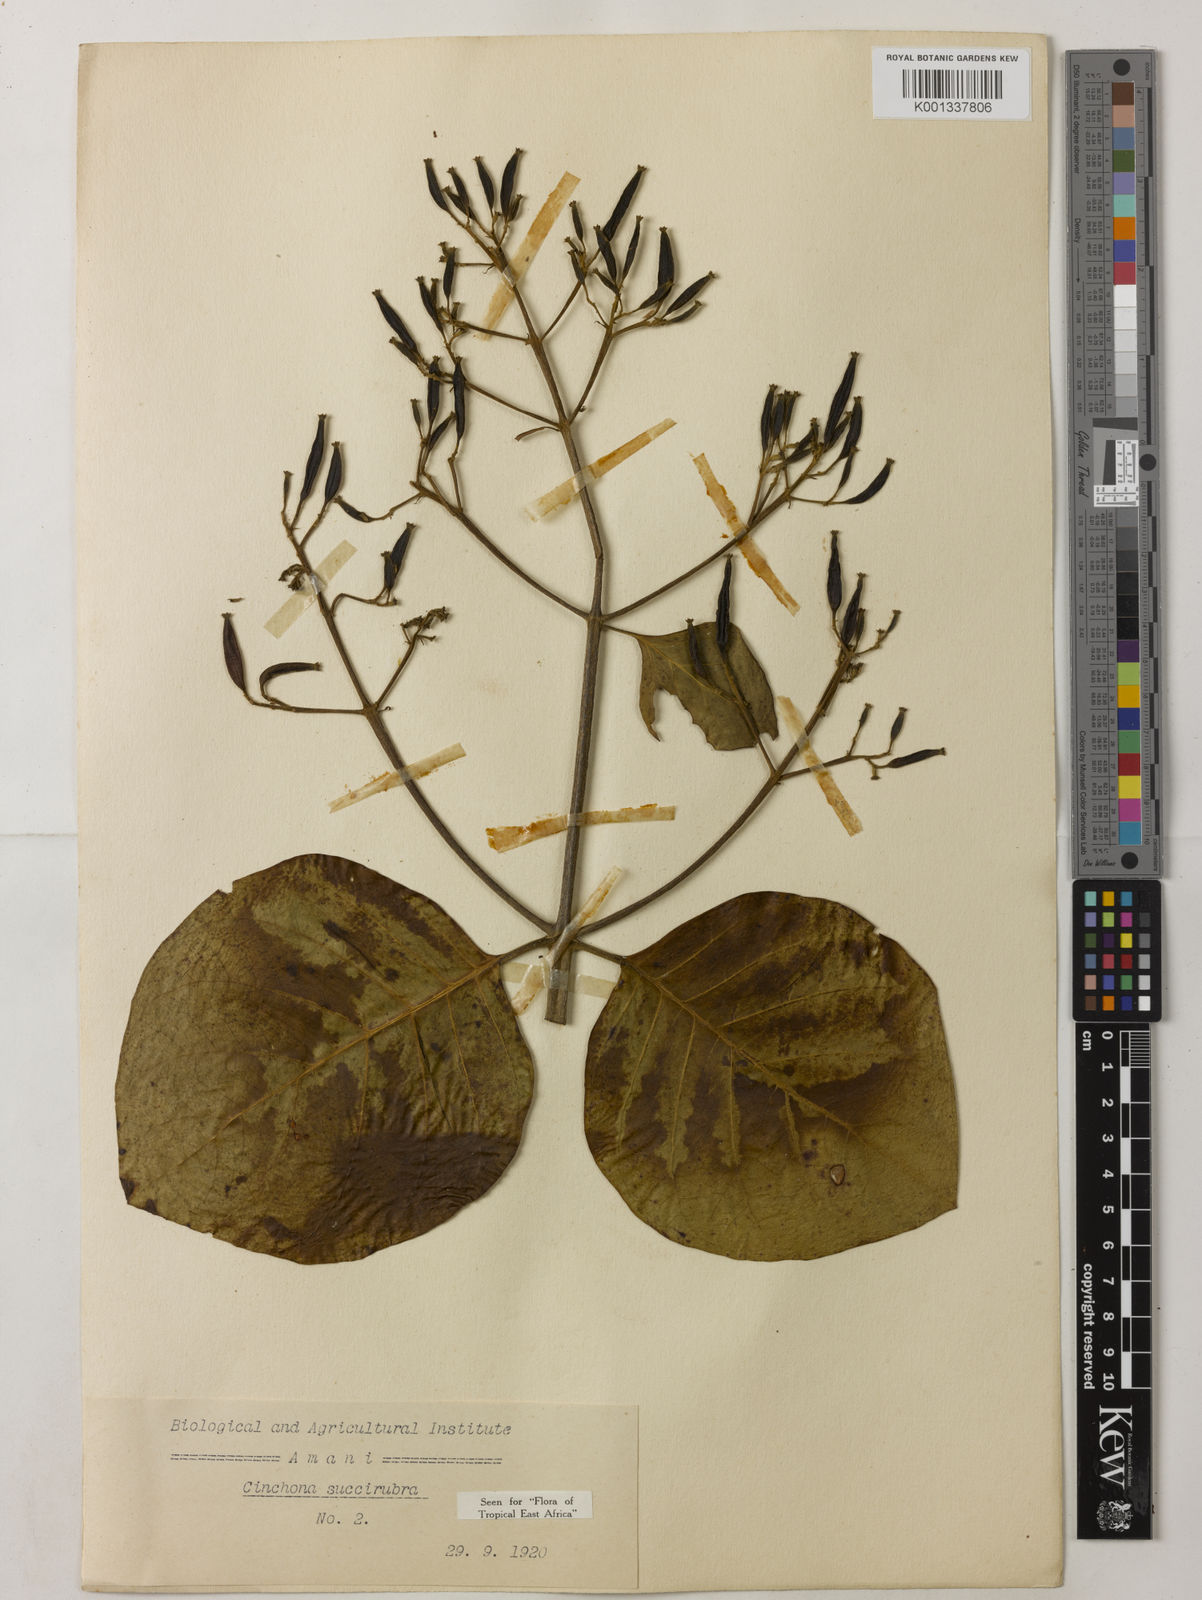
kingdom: Plantae
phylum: Tracheophyta
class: Magnoliopsida
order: Gentianales
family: Rubiaceae
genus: Cinchona
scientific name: Cinchona pubescens
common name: Quinine
